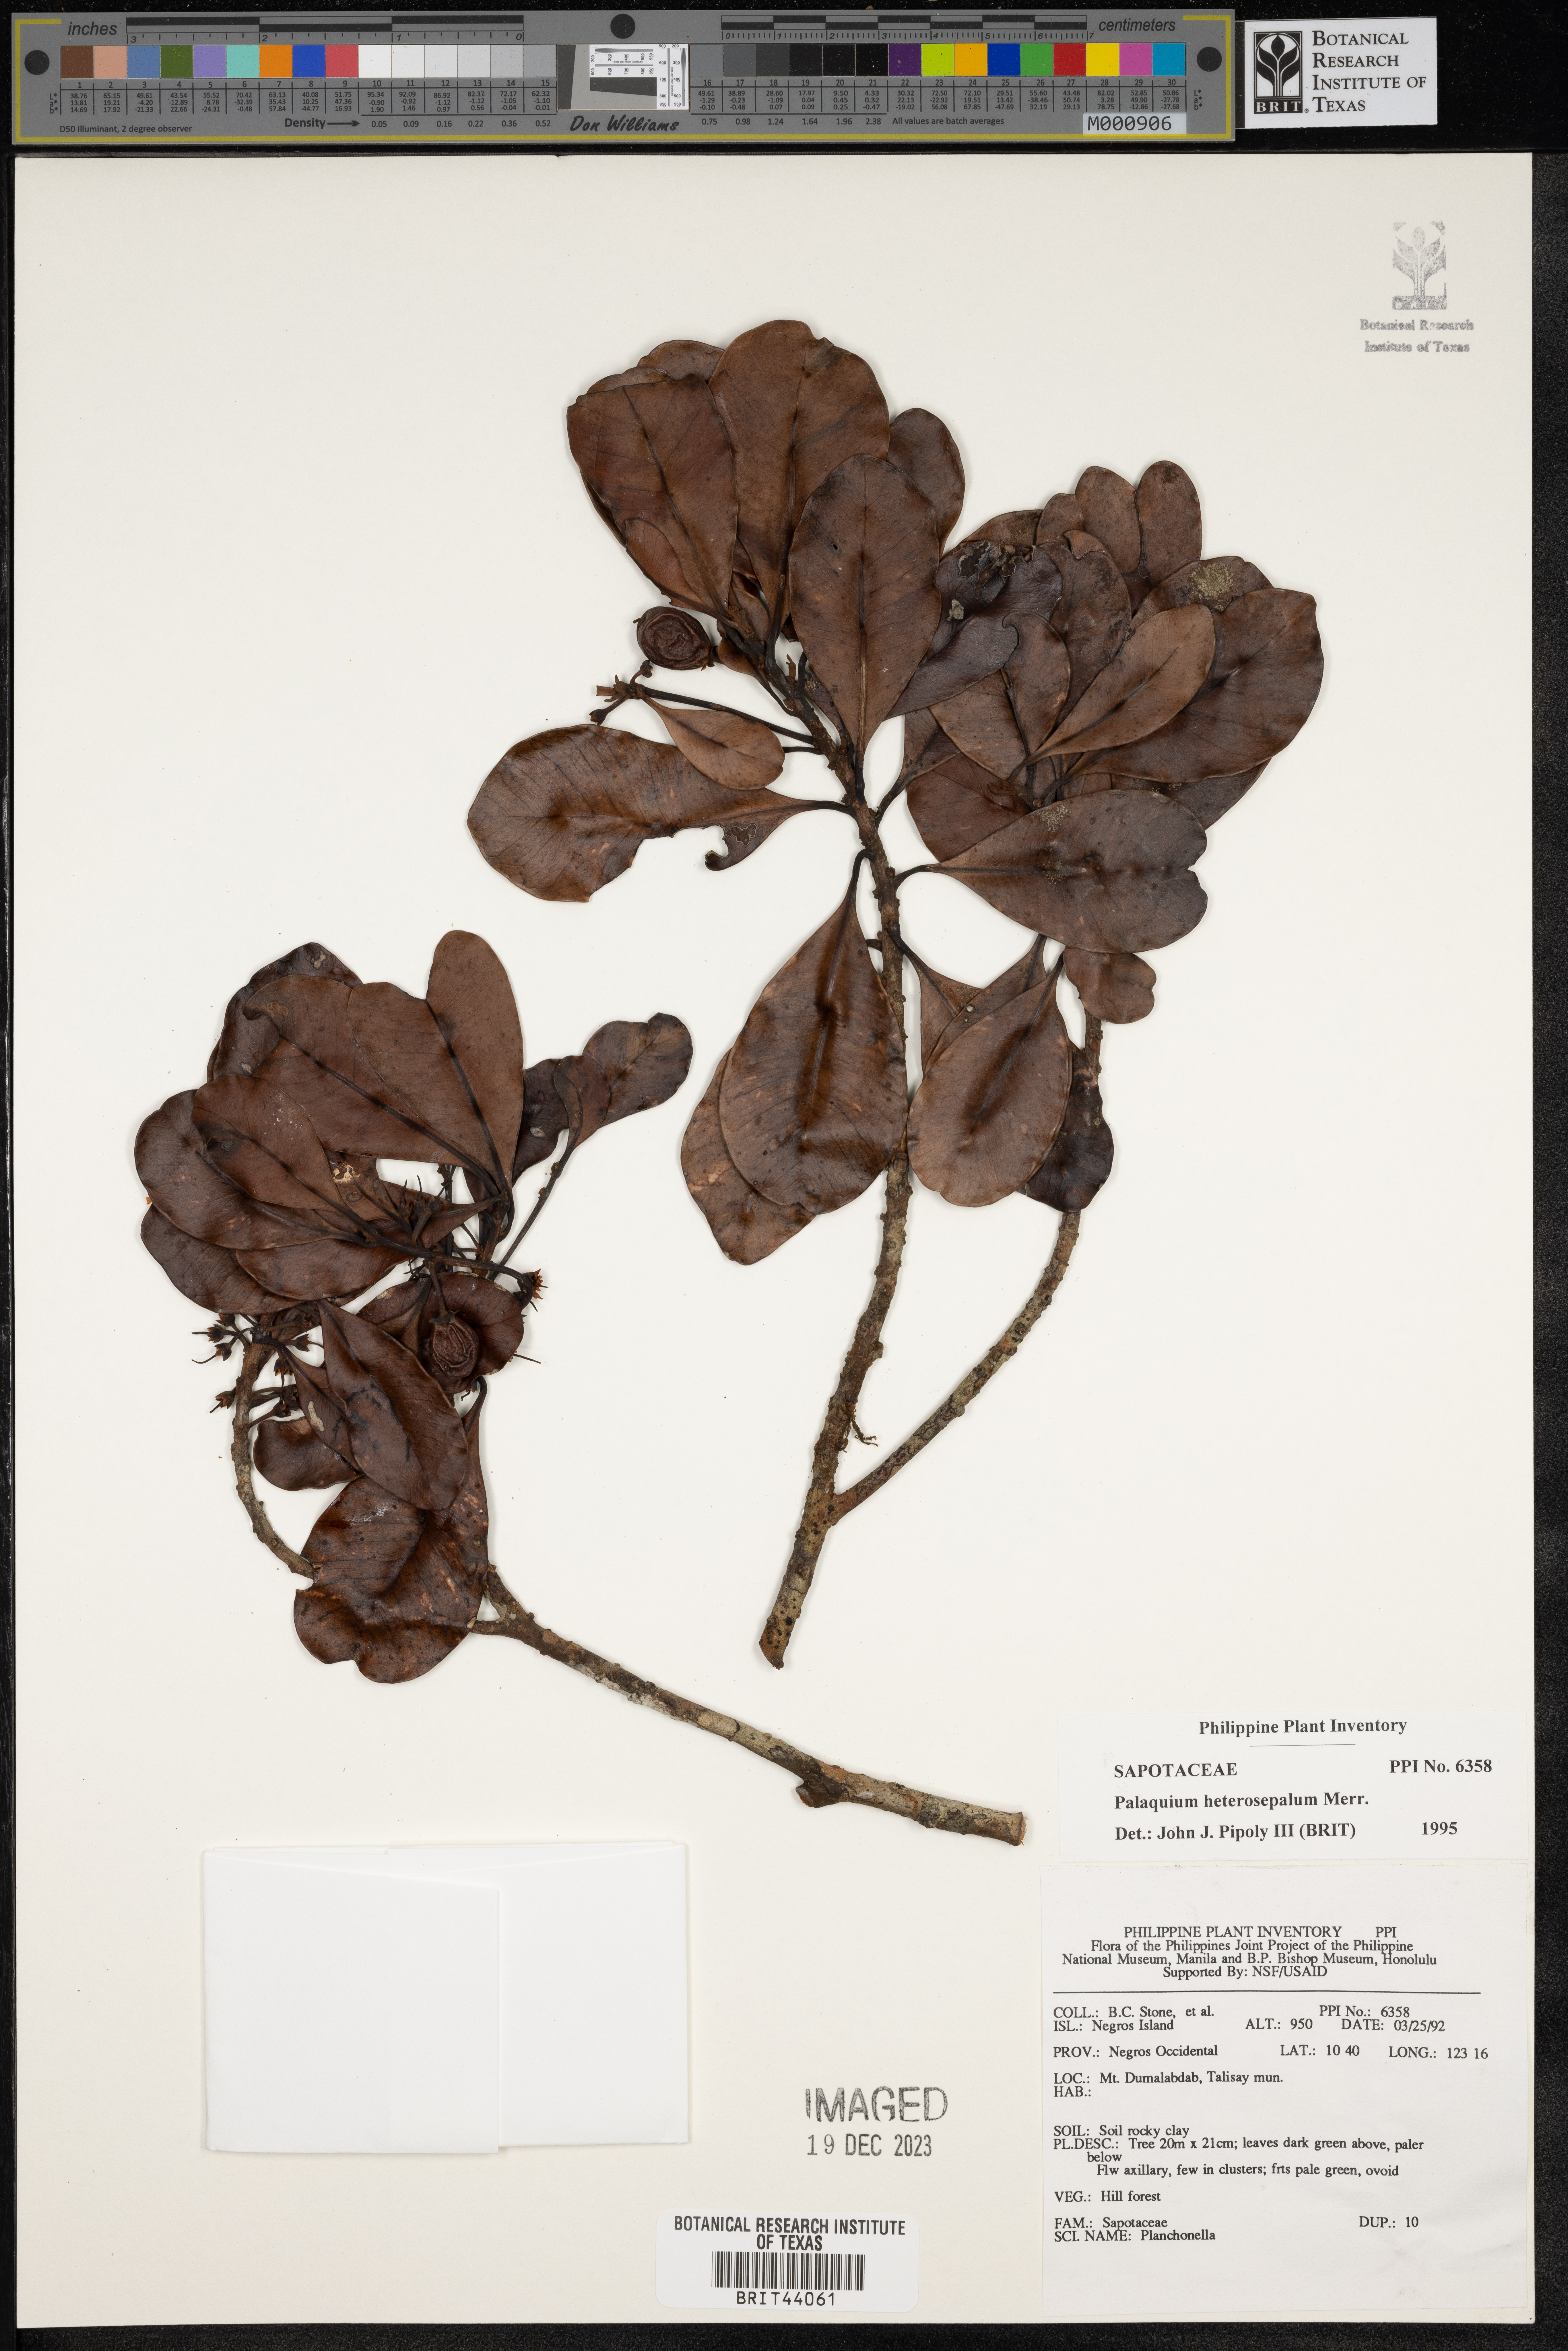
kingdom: Plantae
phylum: Tracheophyta
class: Magnoliopsida
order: Ericales
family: Sapotaceae
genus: Palaquium
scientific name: Palaquium heterosepalum
